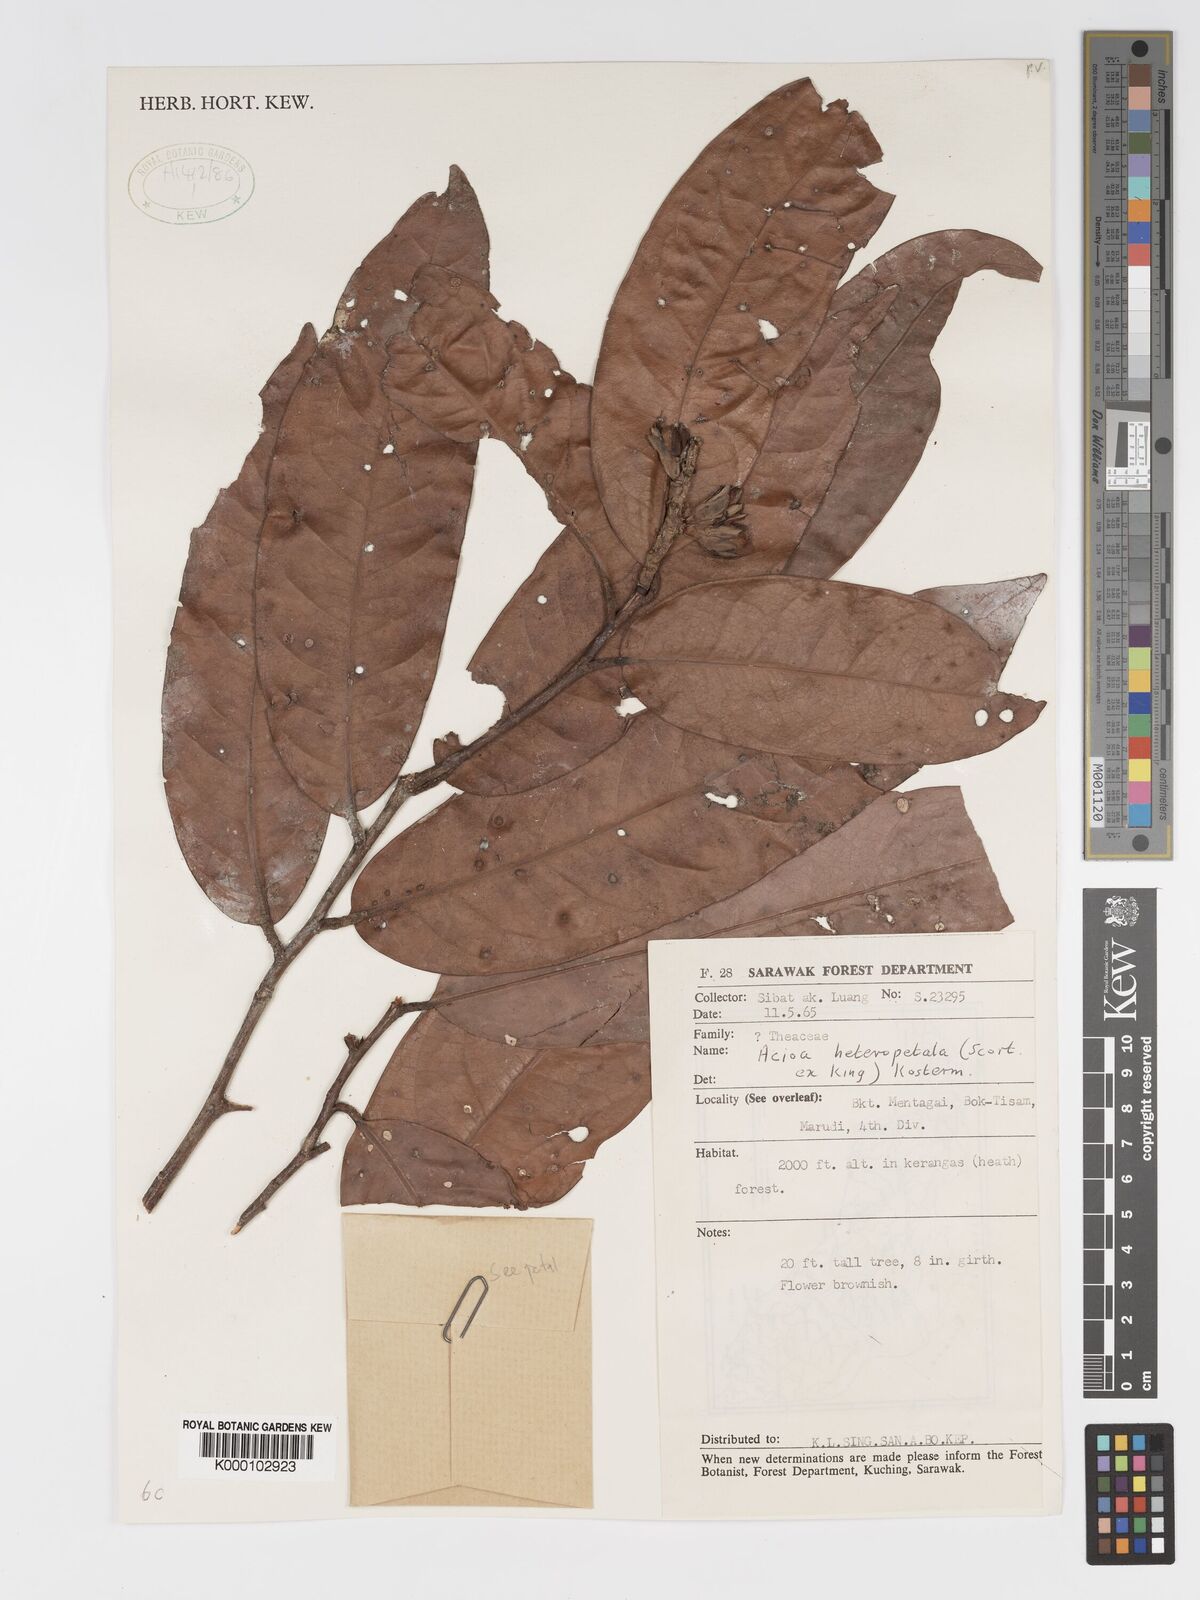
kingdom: Plantae
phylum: Tracheophyta
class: Magnoliopsida
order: Malpighiales
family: Chrysobalanaceae
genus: Kostermanthus
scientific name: Kostermanthus robustus
